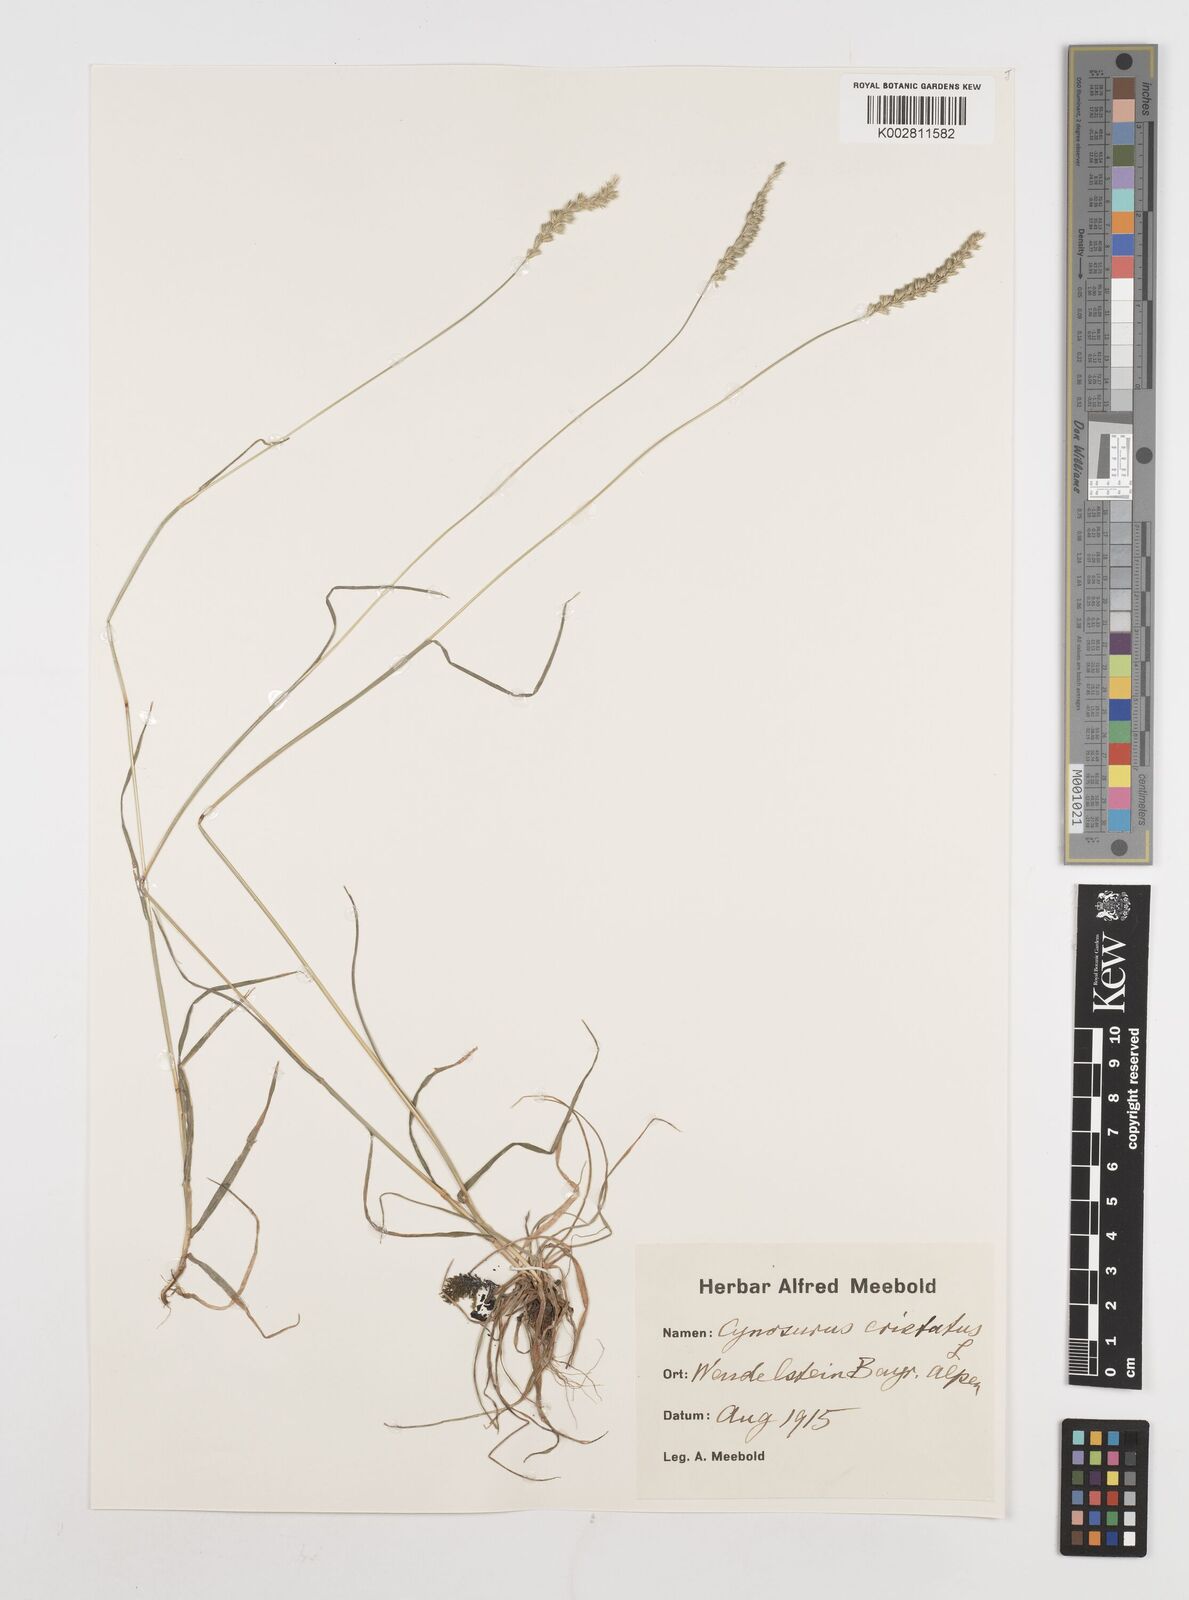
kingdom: Plantae
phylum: Tracheophyta
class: Liliopsida
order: Poales
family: Poaceae
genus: Cynosurus
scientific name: Cynosurus cristatus
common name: Crested dog's-tail
